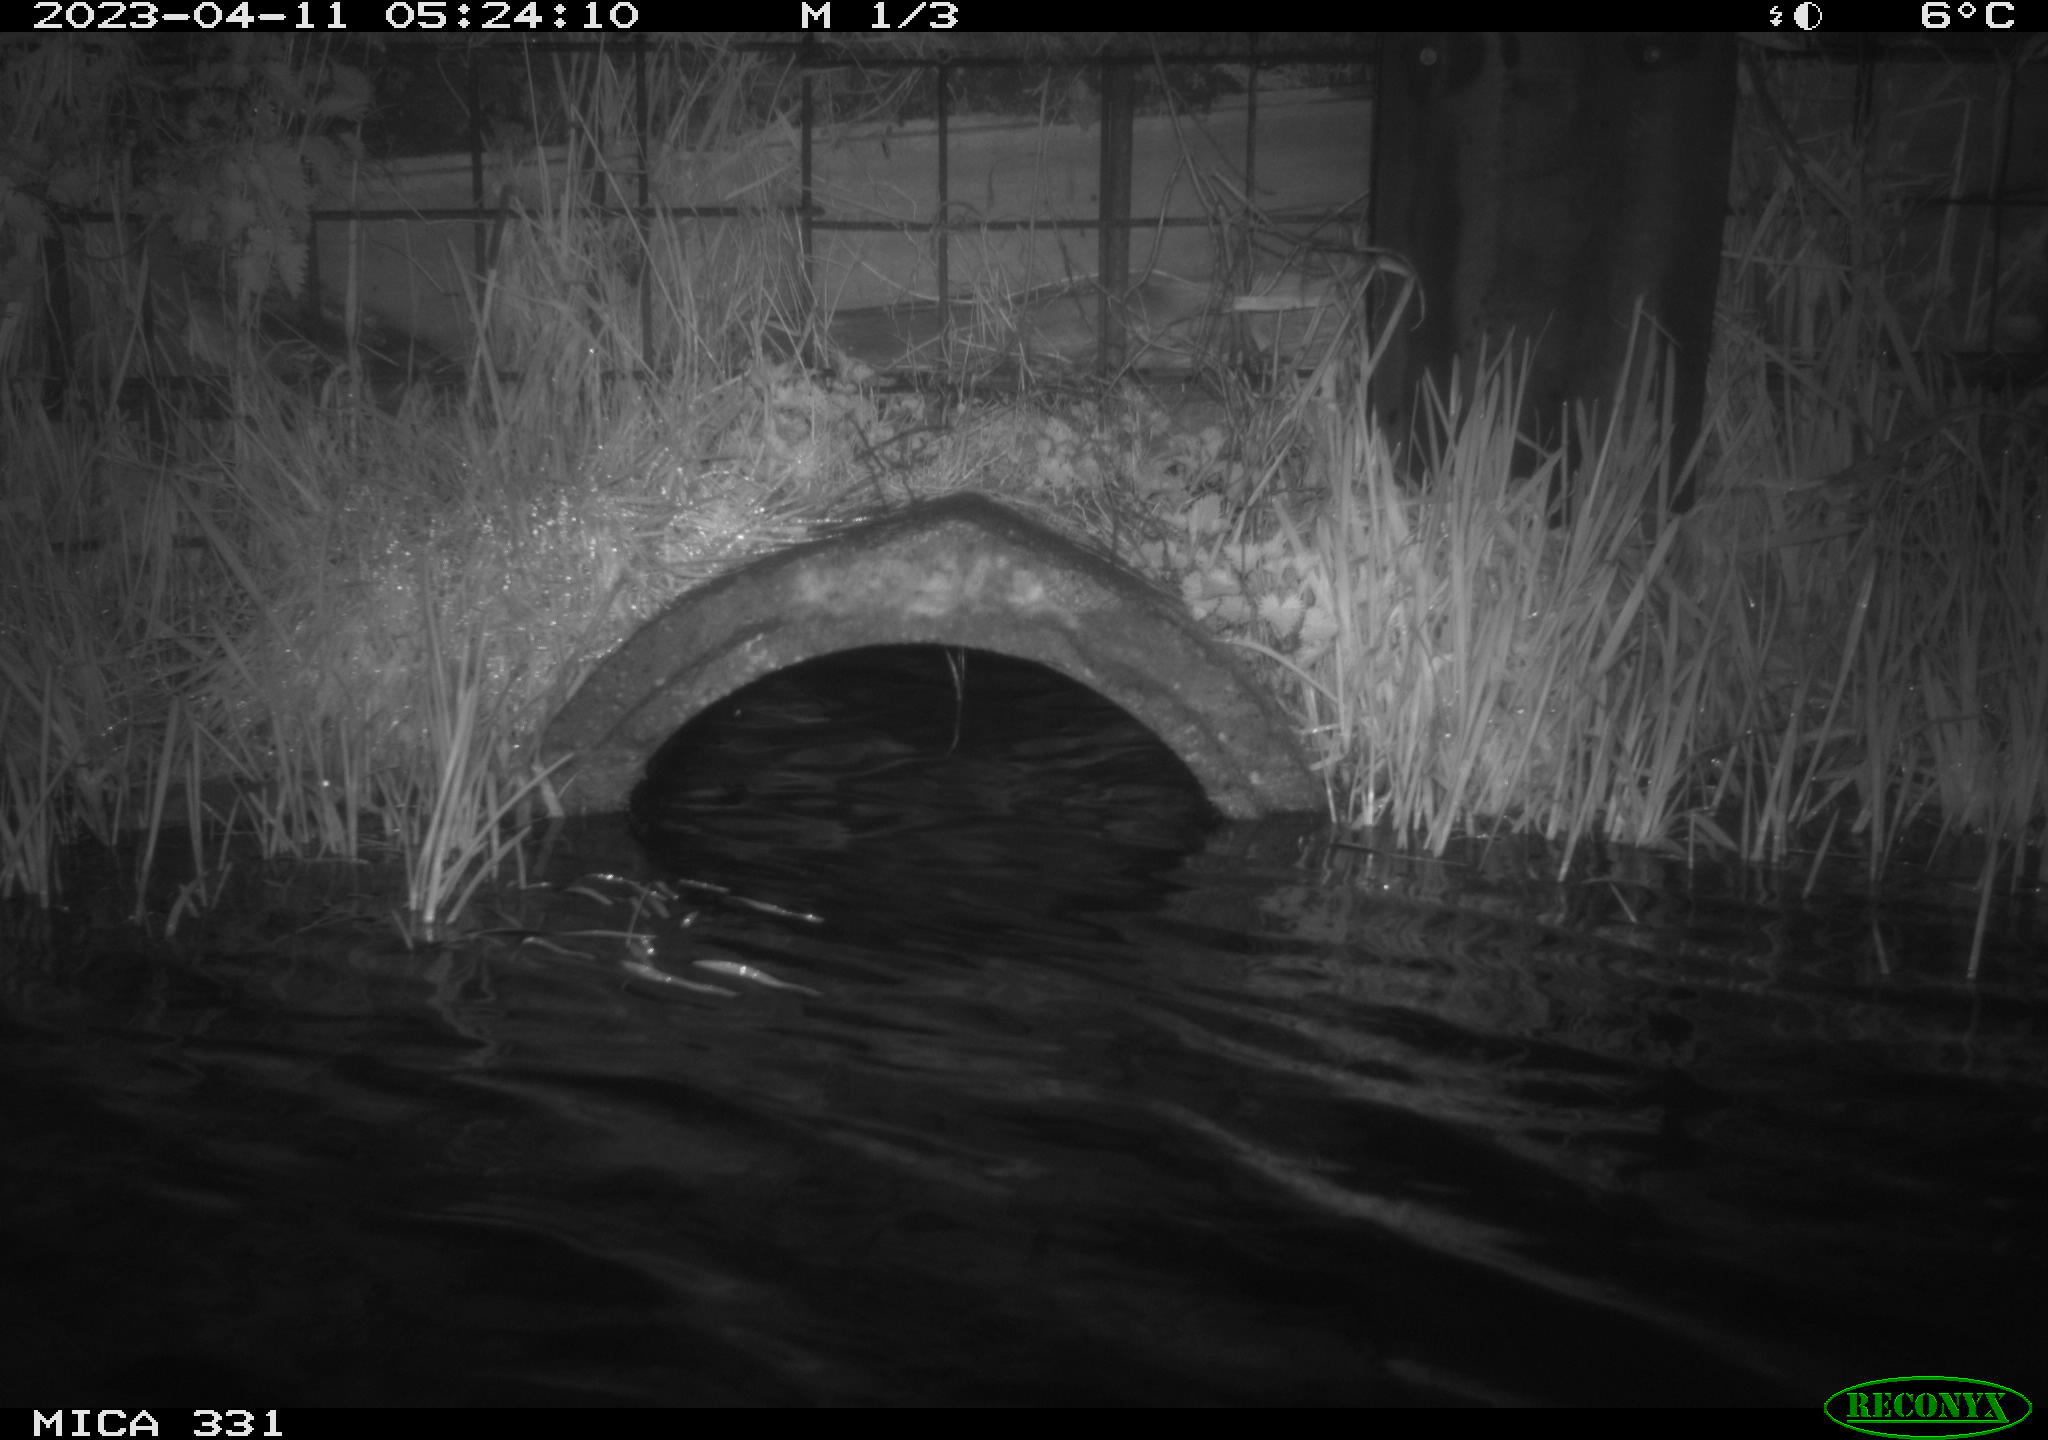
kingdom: Animalia
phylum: Chordata
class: Mammalia
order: Rodentia
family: Muridae
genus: Rattus
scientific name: Rattus norvegicus
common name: Brown rat
